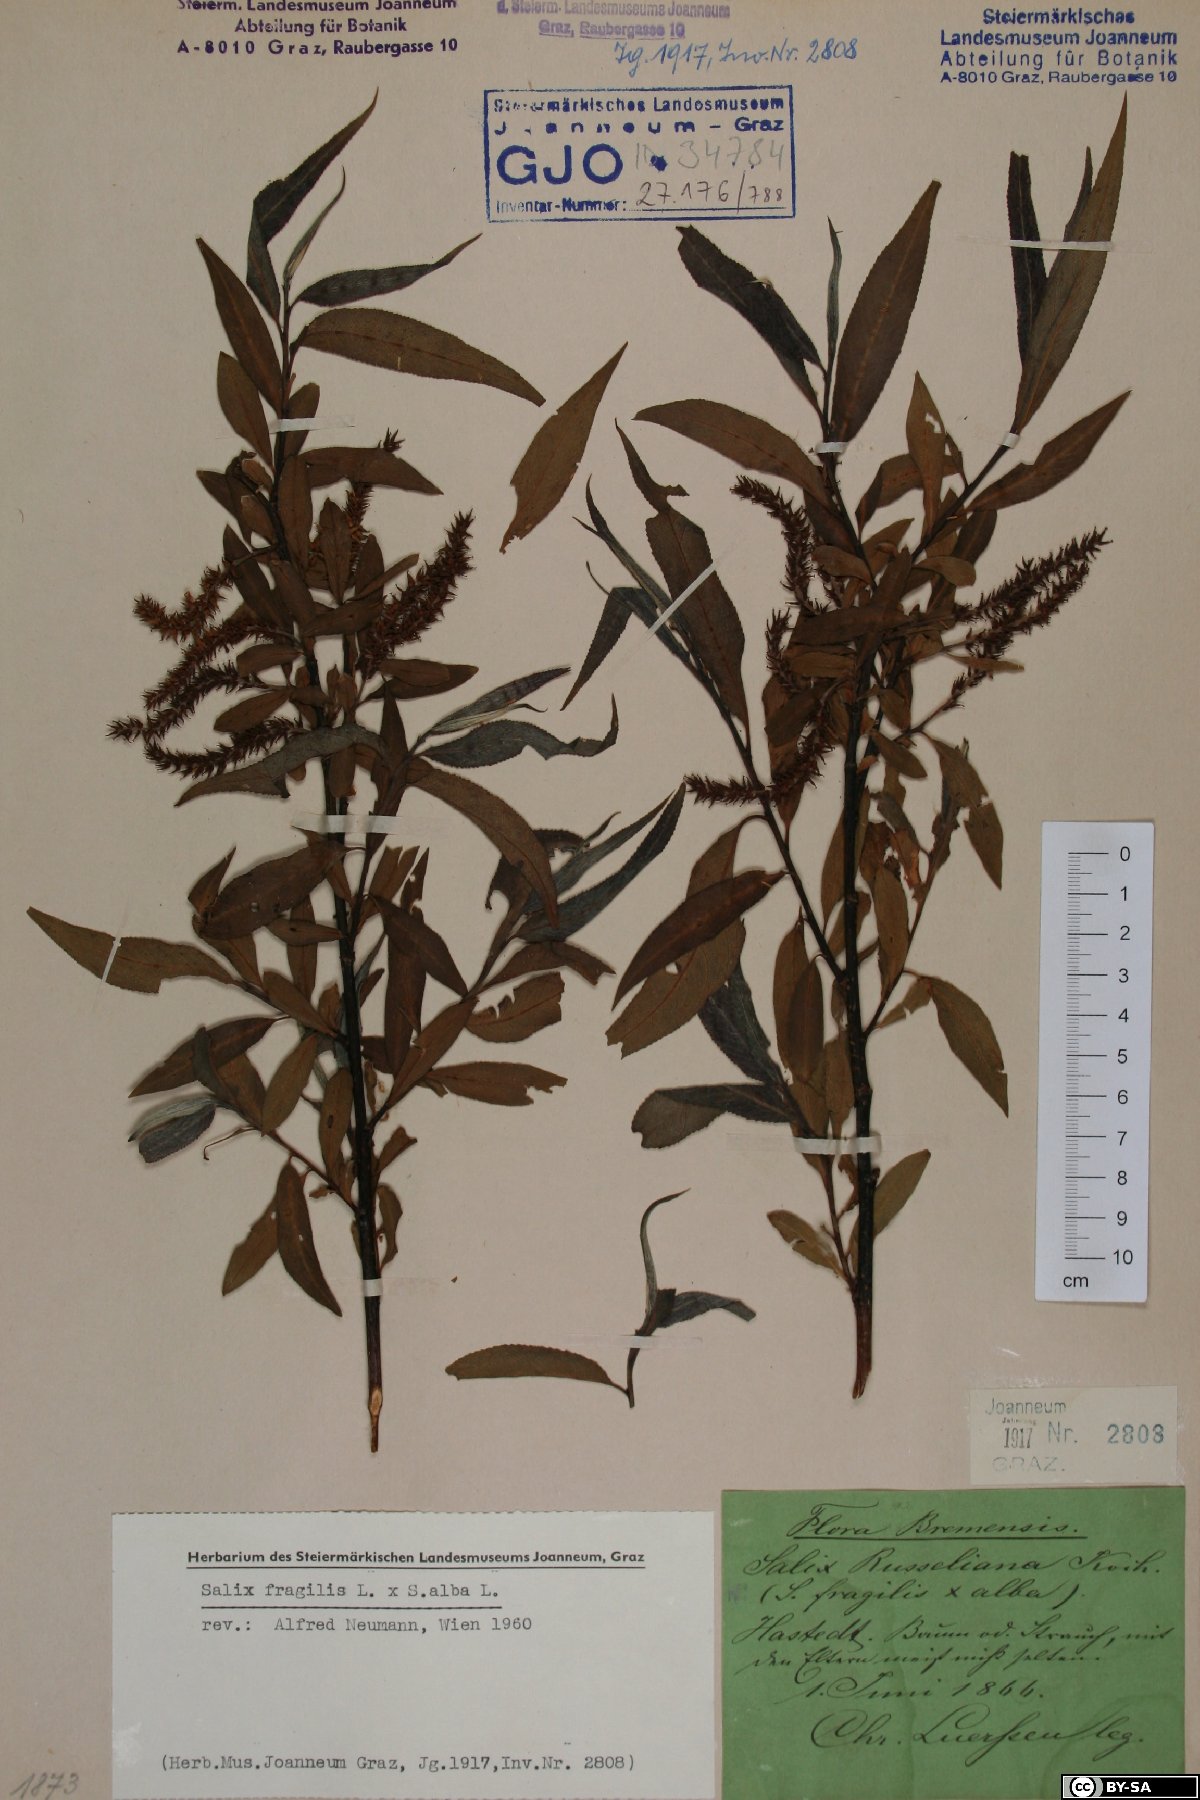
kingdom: Plantae
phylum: Tracheophyta
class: Magnoliopsida
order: Malpighiales
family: Salicaceae
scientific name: Salicaceae
